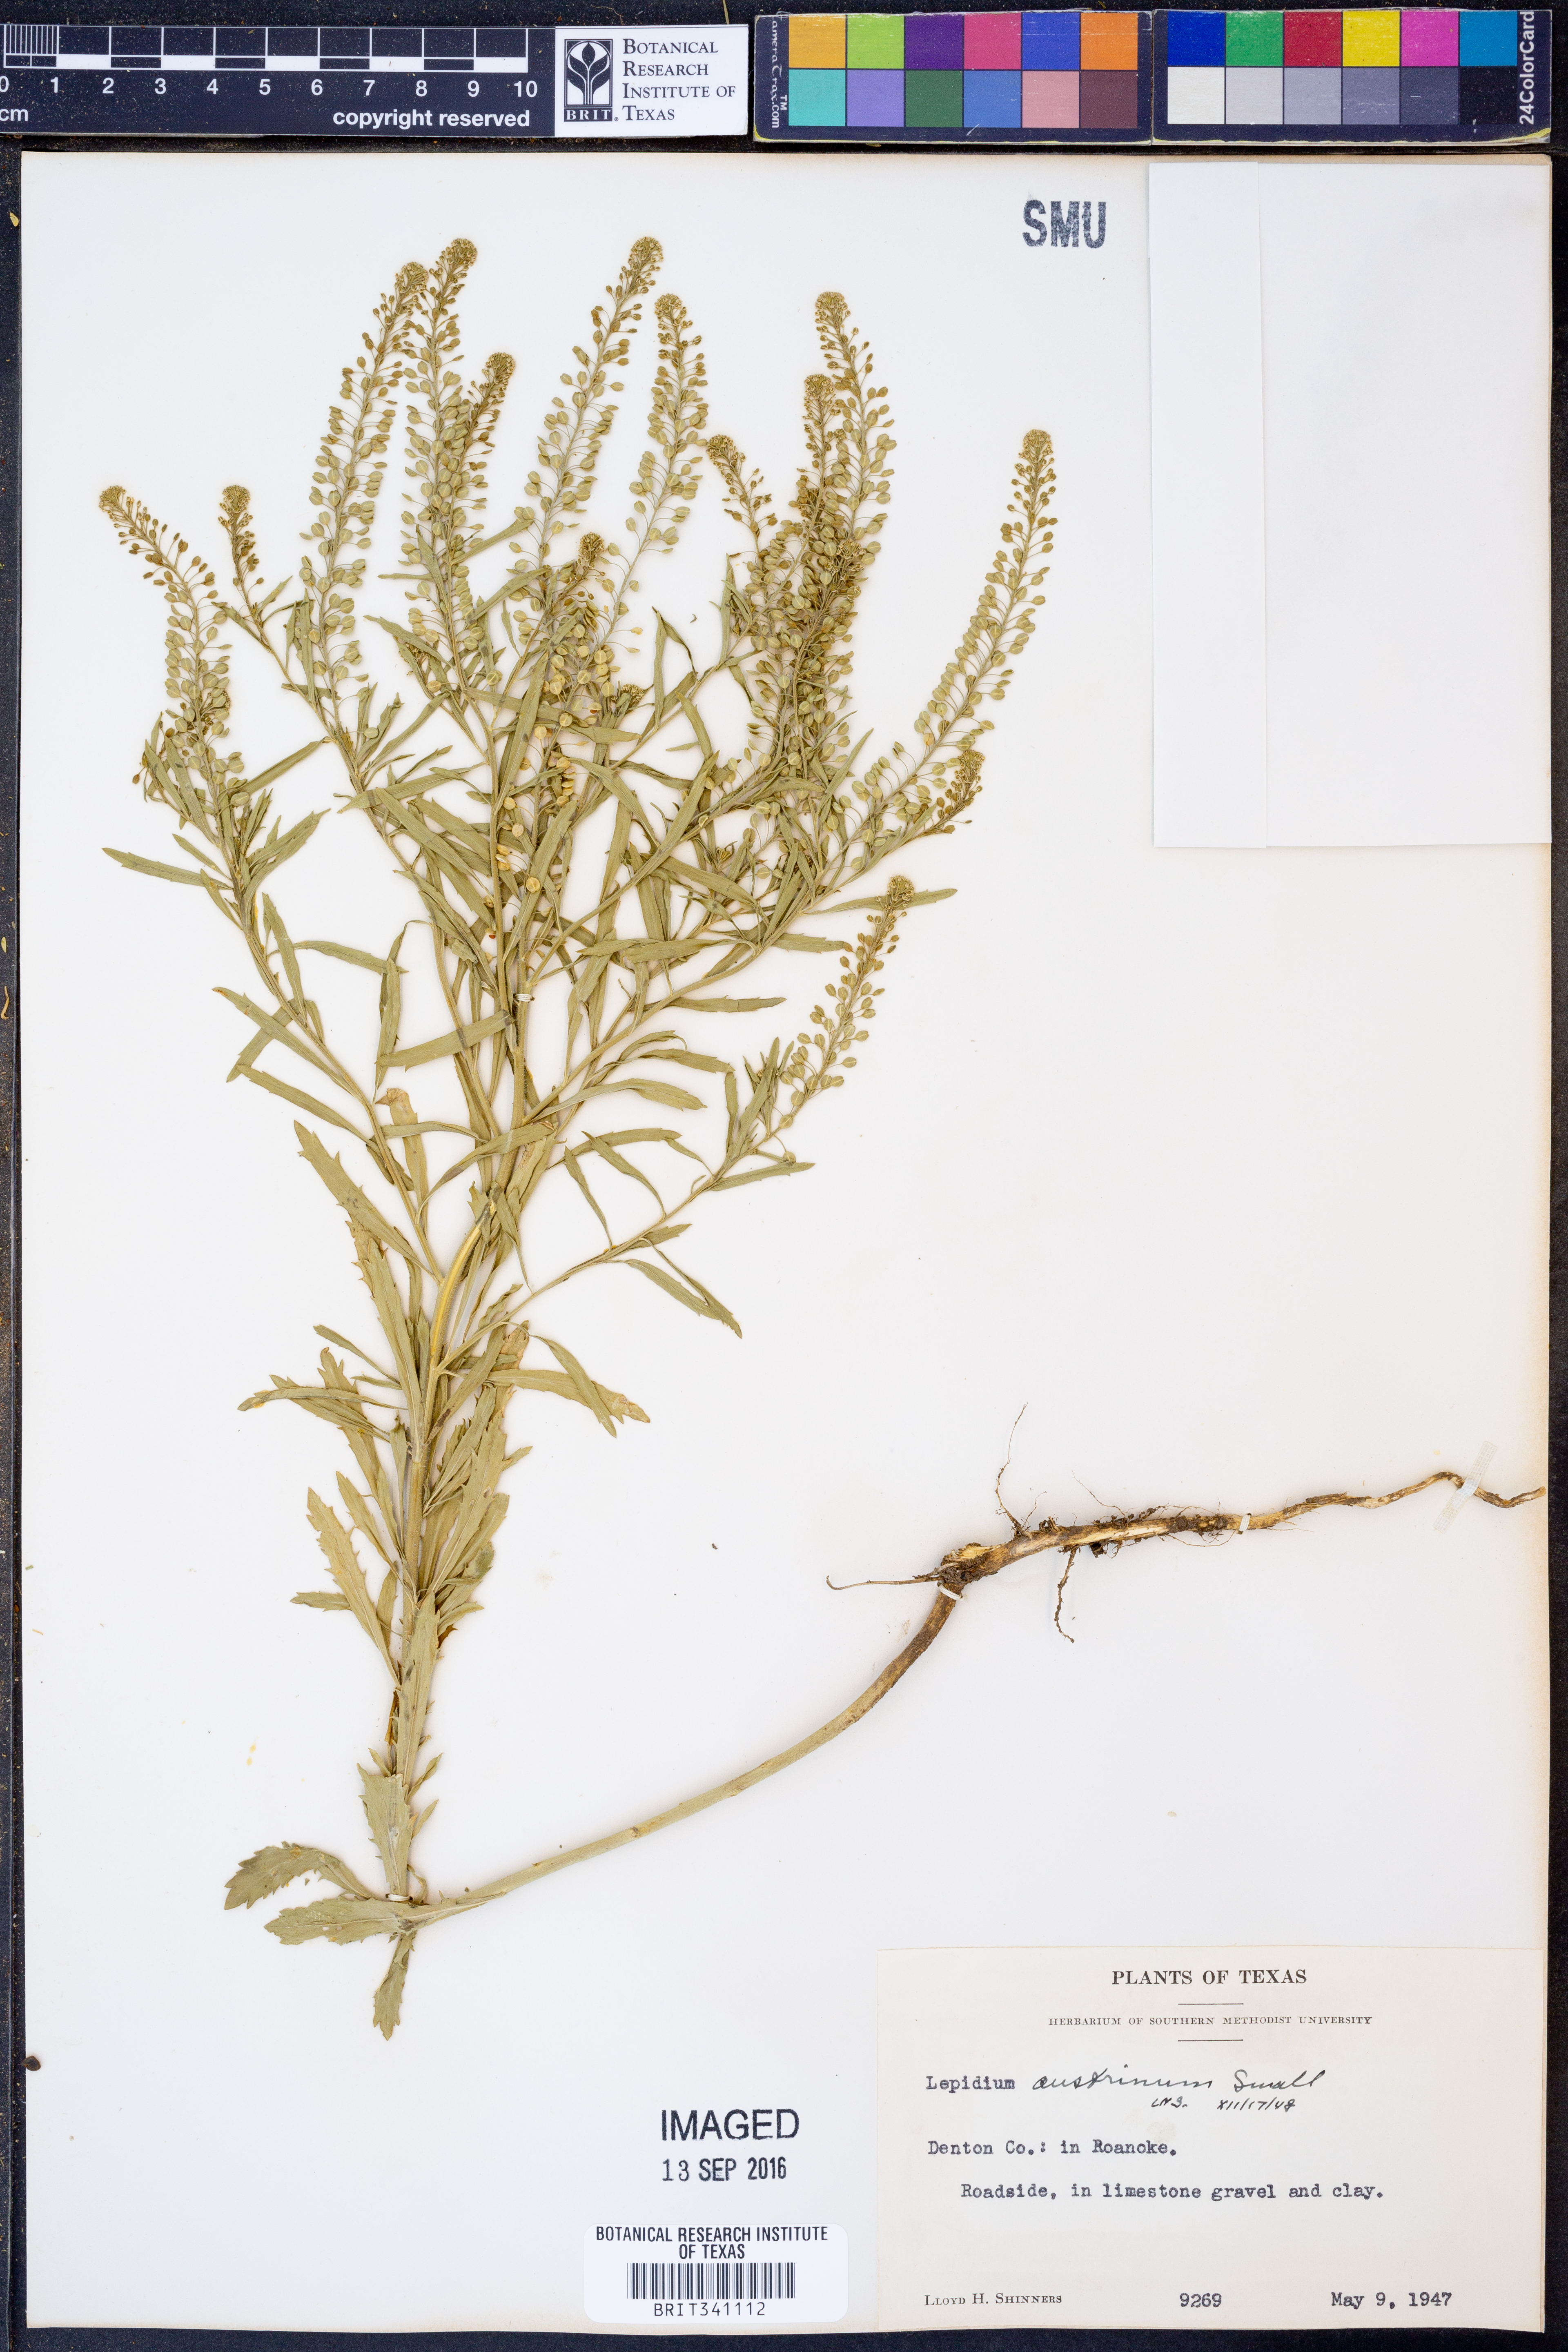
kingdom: Plantae
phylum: Tracheophyta
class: Magnoliopsida
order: Brassicales
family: Brassicaceae
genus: Lepidium
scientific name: Lepidium austrinum
